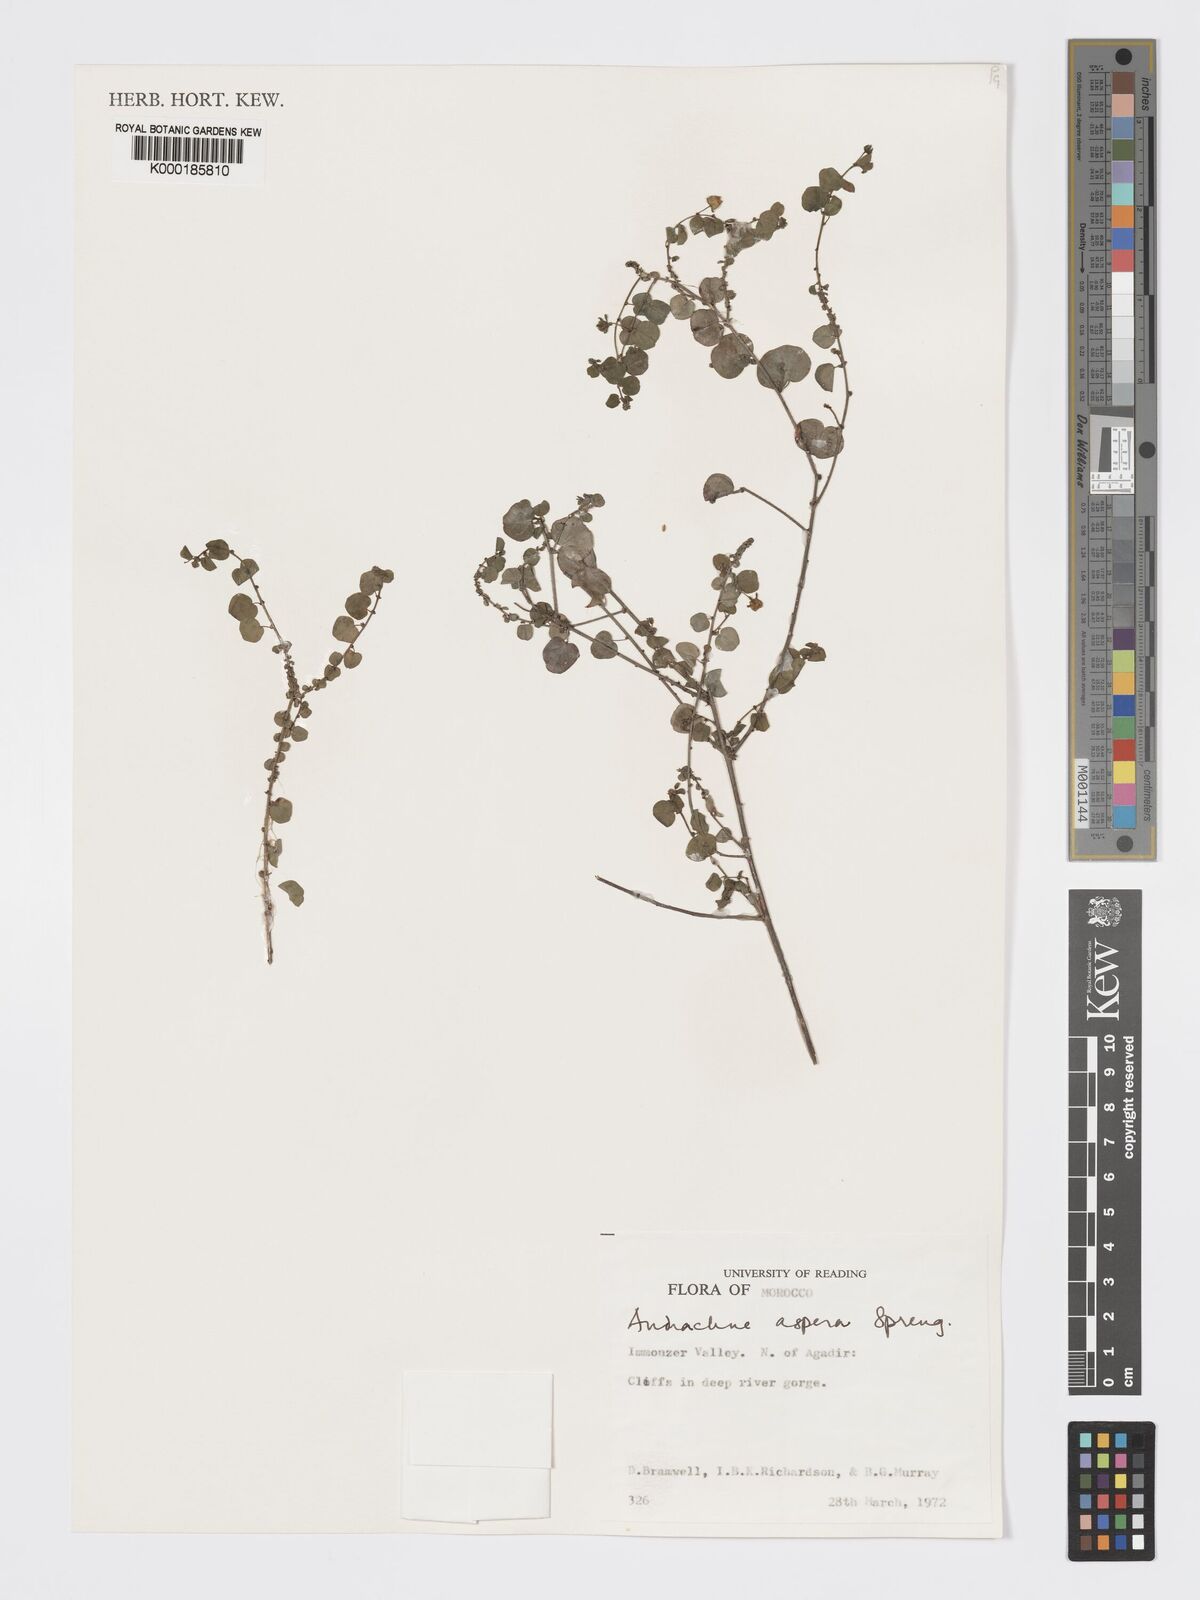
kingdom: Plantae
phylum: Tracheophyta
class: Magnoliopsida
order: Malpighiales
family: Phyllanthaceae
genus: Andrachne
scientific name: Andrachne aspera
